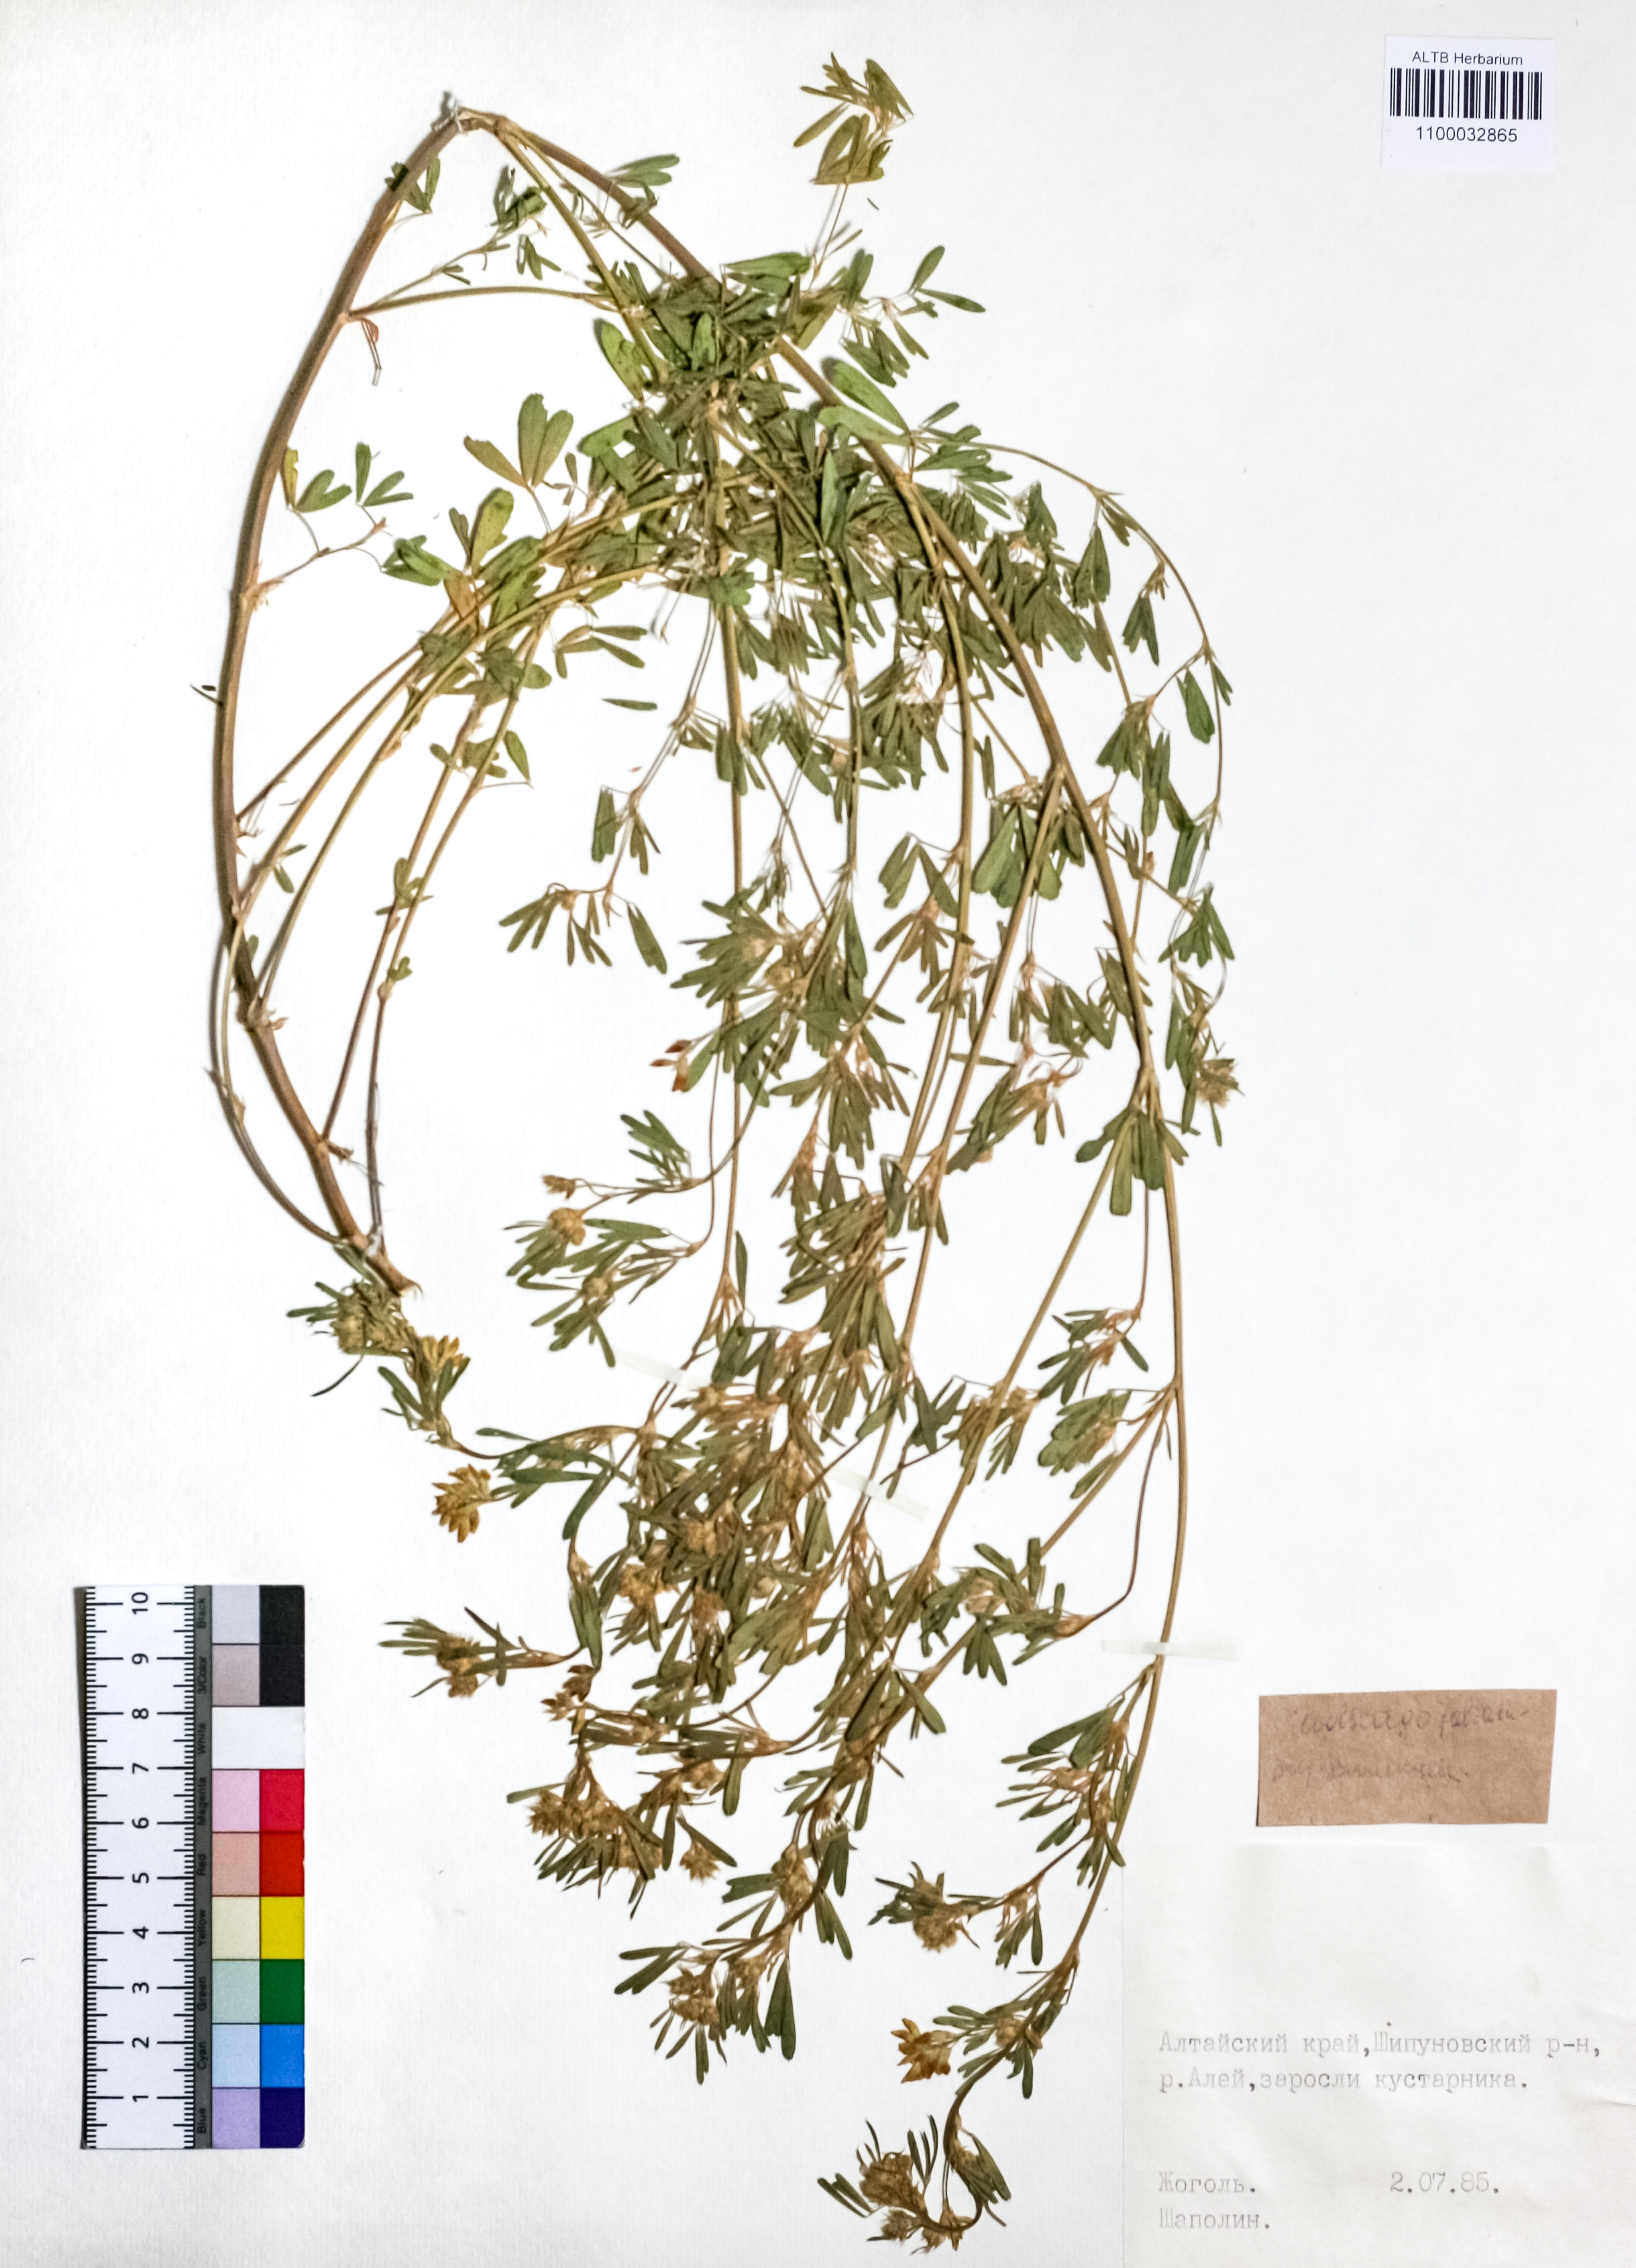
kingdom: Plantae
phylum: Tracheophyta
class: Magnoliopsida
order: Fabales
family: Fabaceae
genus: Medicago
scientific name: Medicago falcata
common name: Sickle medick
